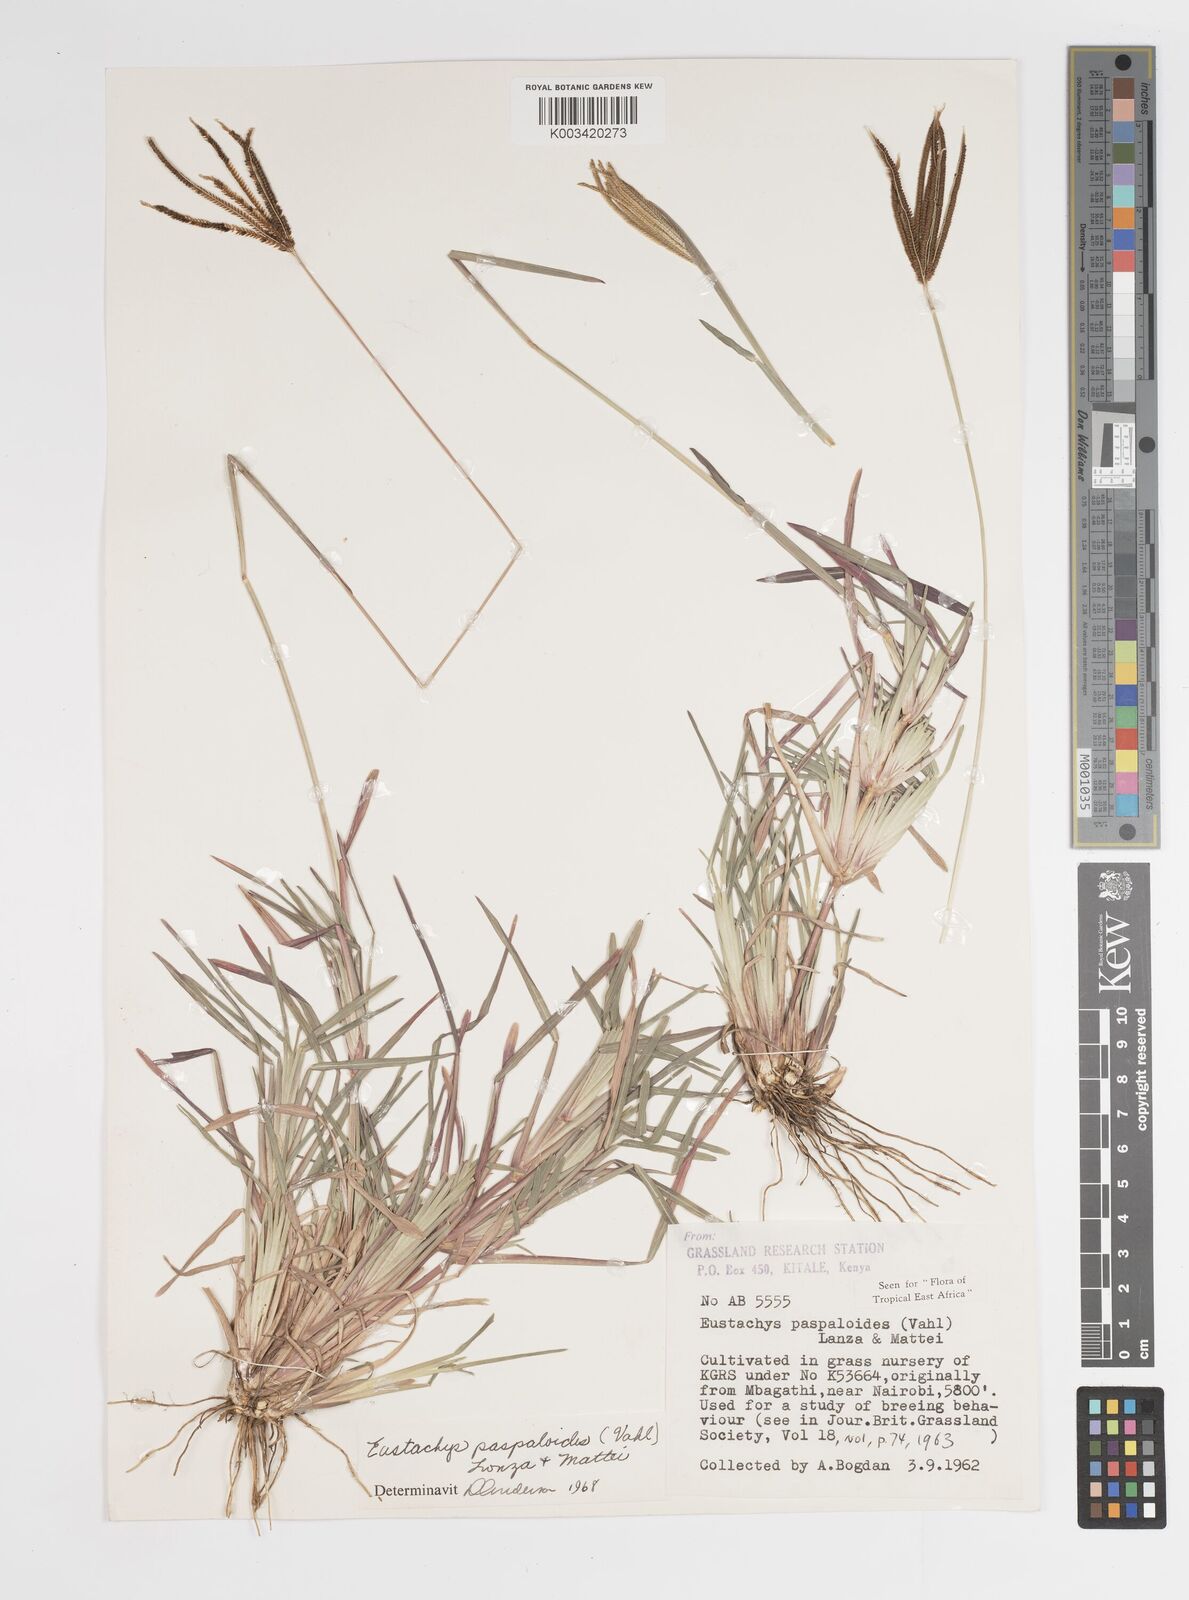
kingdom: Plantae
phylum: Tracheophyta
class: Liliopsida
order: Poales
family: Poaceae
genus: Eustachys
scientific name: Eustachys paspaloides
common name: Caribbean fingergrass
